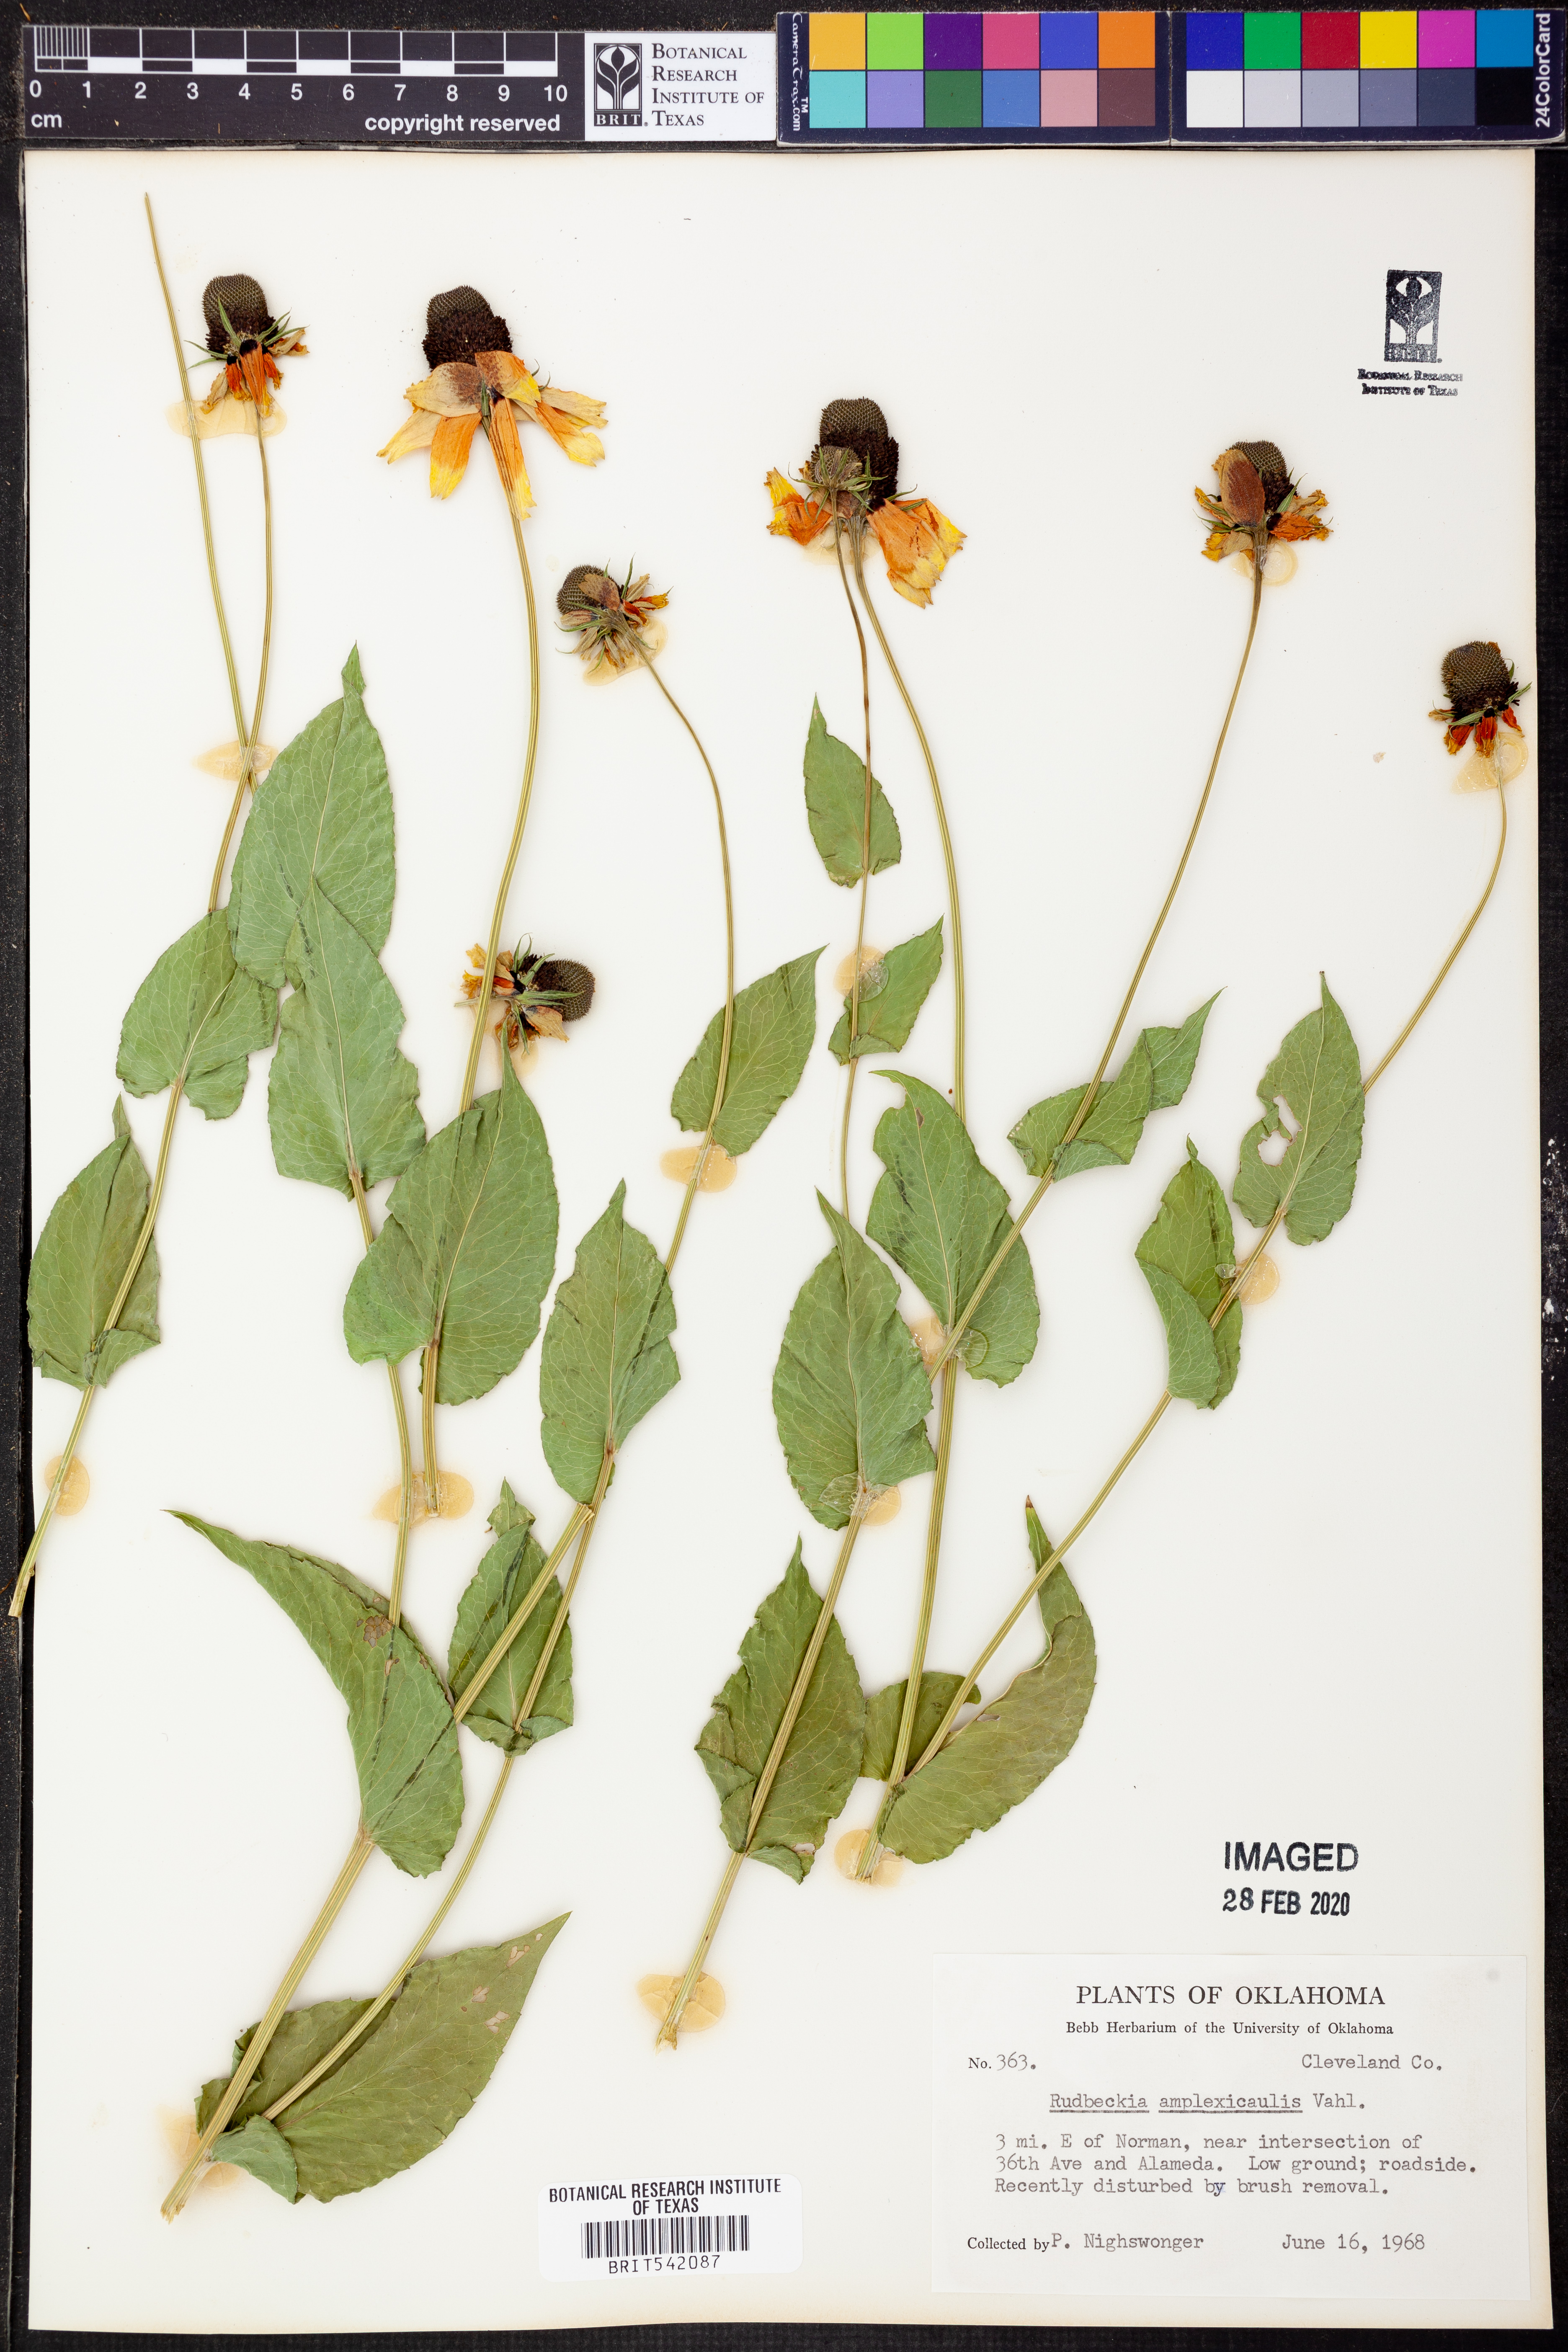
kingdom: Plantae
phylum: Tracheophyta
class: Magnoliopsida
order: Asterales
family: Asteraceae
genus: Rudbeckia
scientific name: Rudbeckia amplexicaulis
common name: Clasping-leaf coneflower
